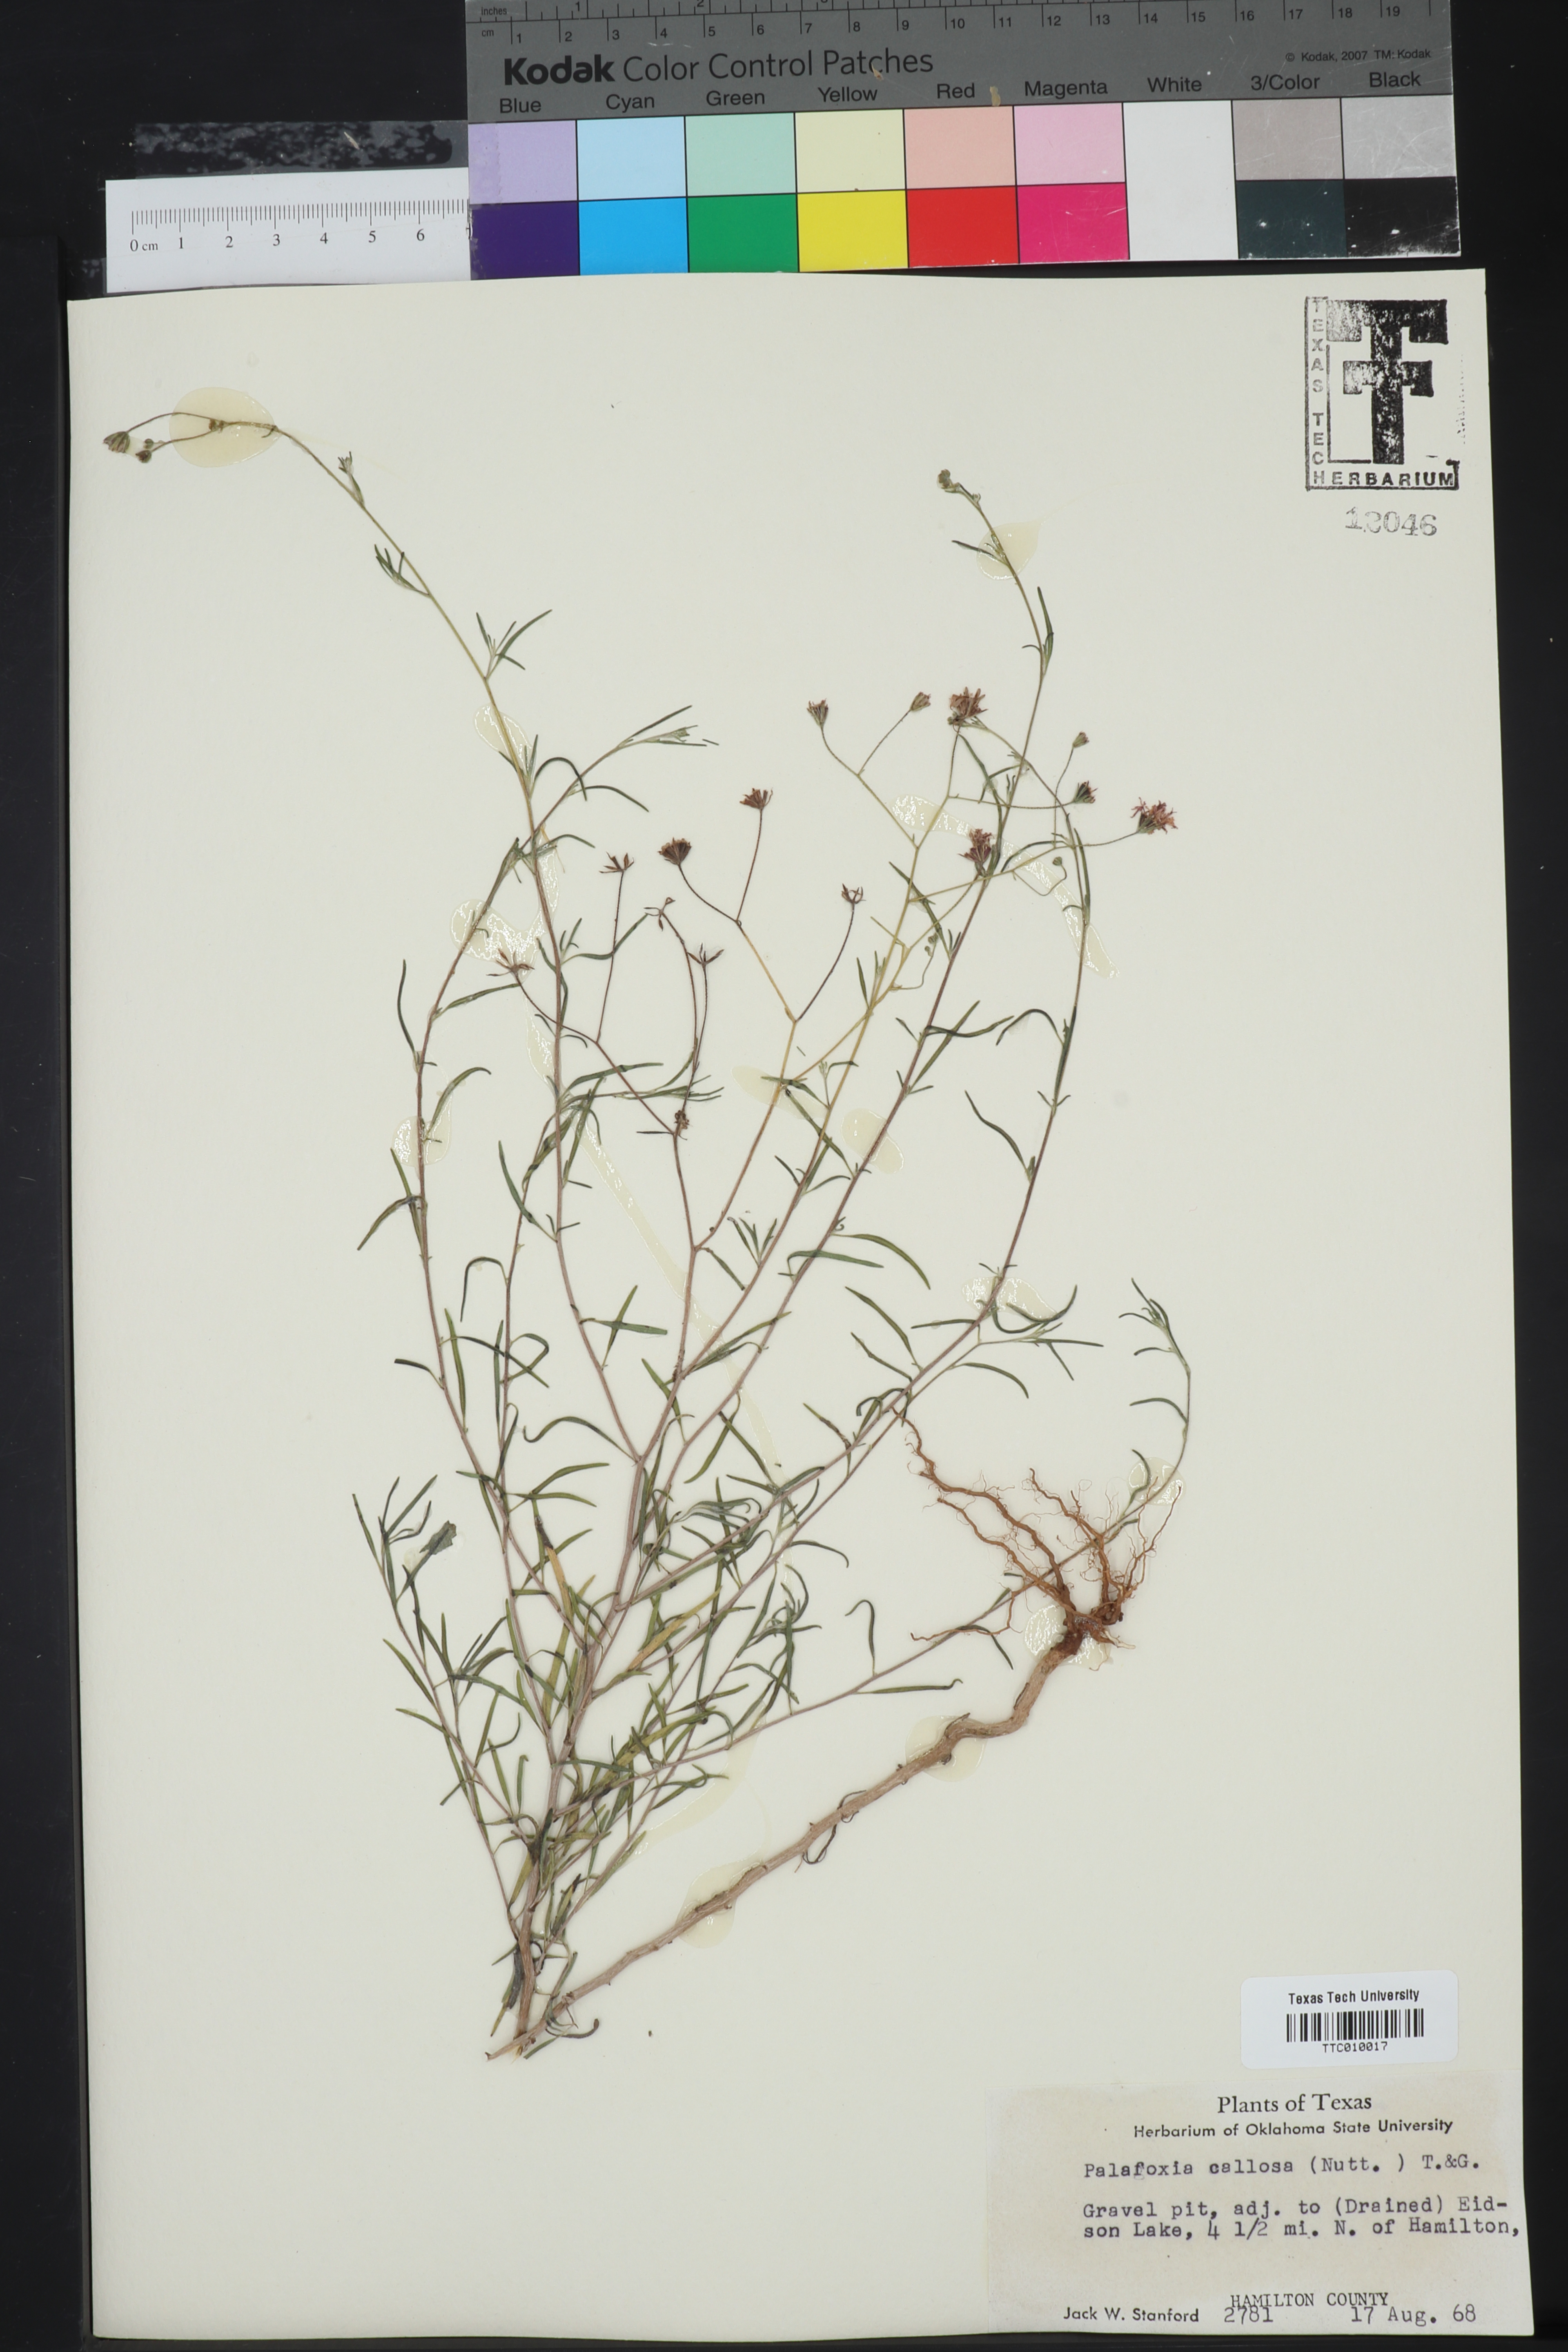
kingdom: Plantae
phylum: Tracheophyta
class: Magnoliopsida
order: Asterales
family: Asteraceae
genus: Palafoxia
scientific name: Palafoxia callosa
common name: Small palafox
